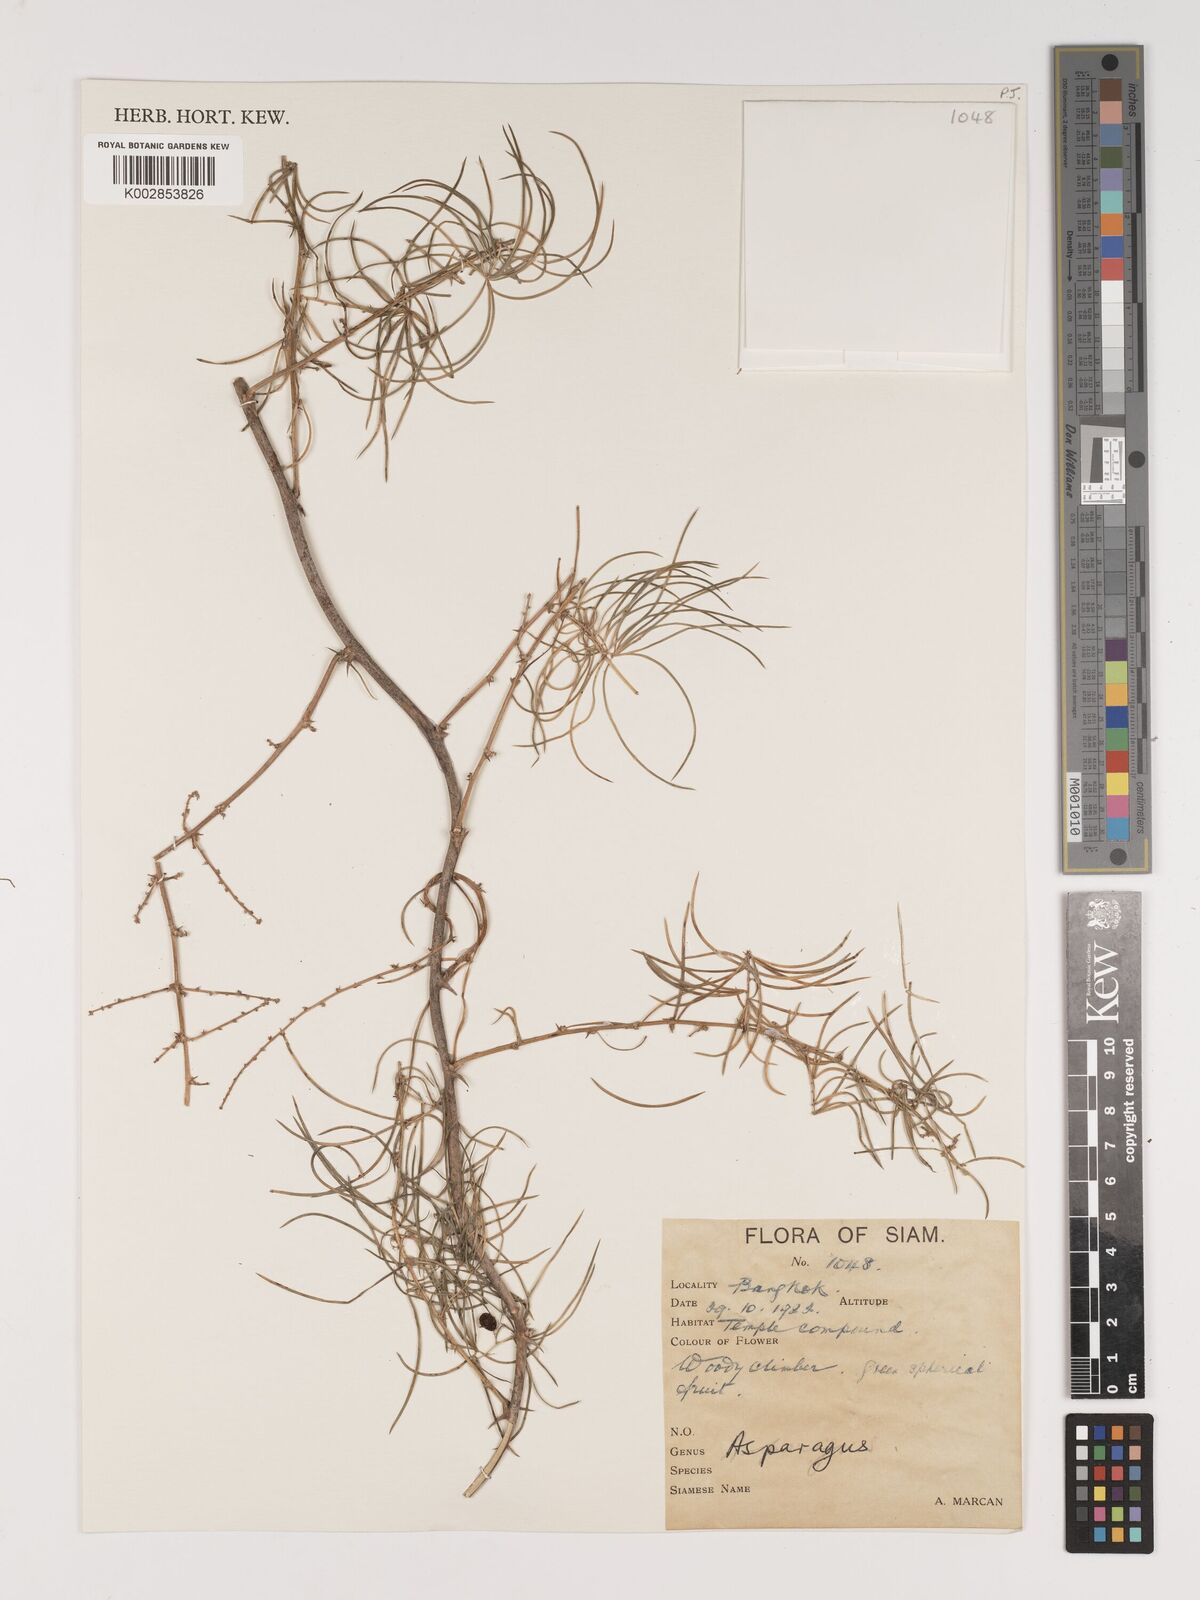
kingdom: Plantae
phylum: Tracheophyta
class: Liliopsida
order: Asparagales
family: Asparagaceae
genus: Asparagus
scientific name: Asparagus
